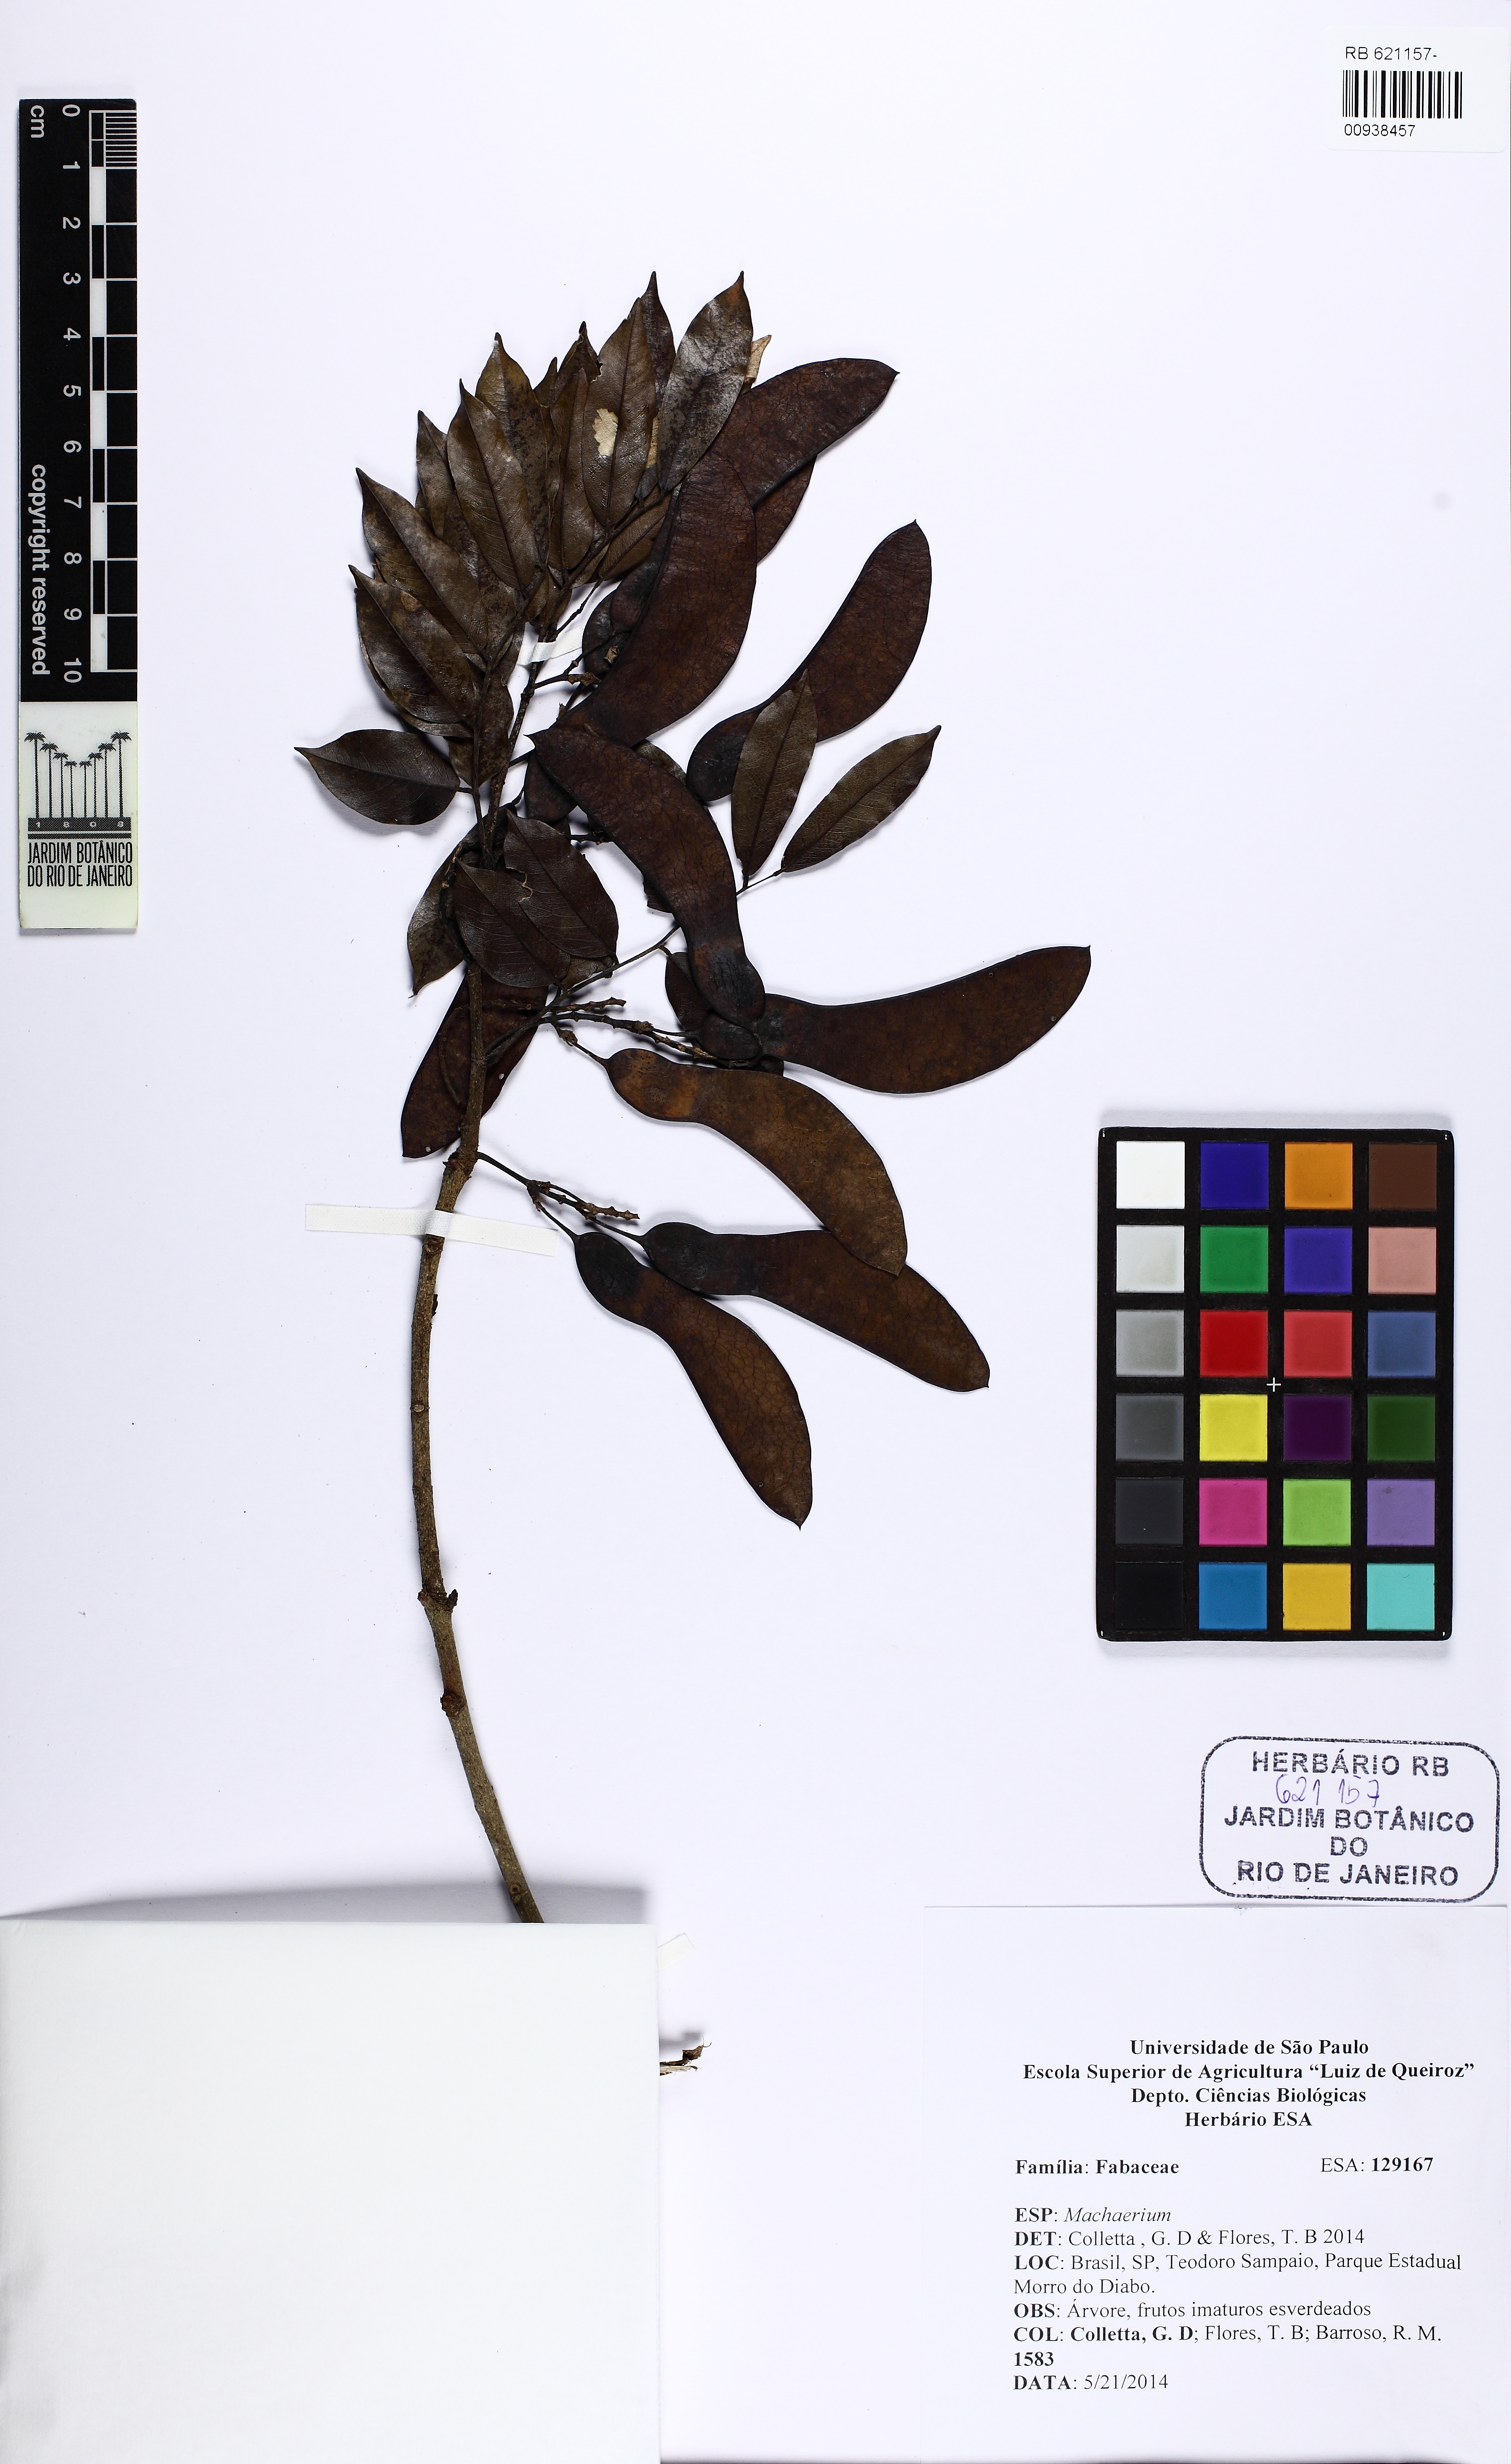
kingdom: Plantae
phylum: Tracheophyta
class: Magnoliopsida
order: Fabales
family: Fabaceae
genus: Machaerium
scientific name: Machaerium
